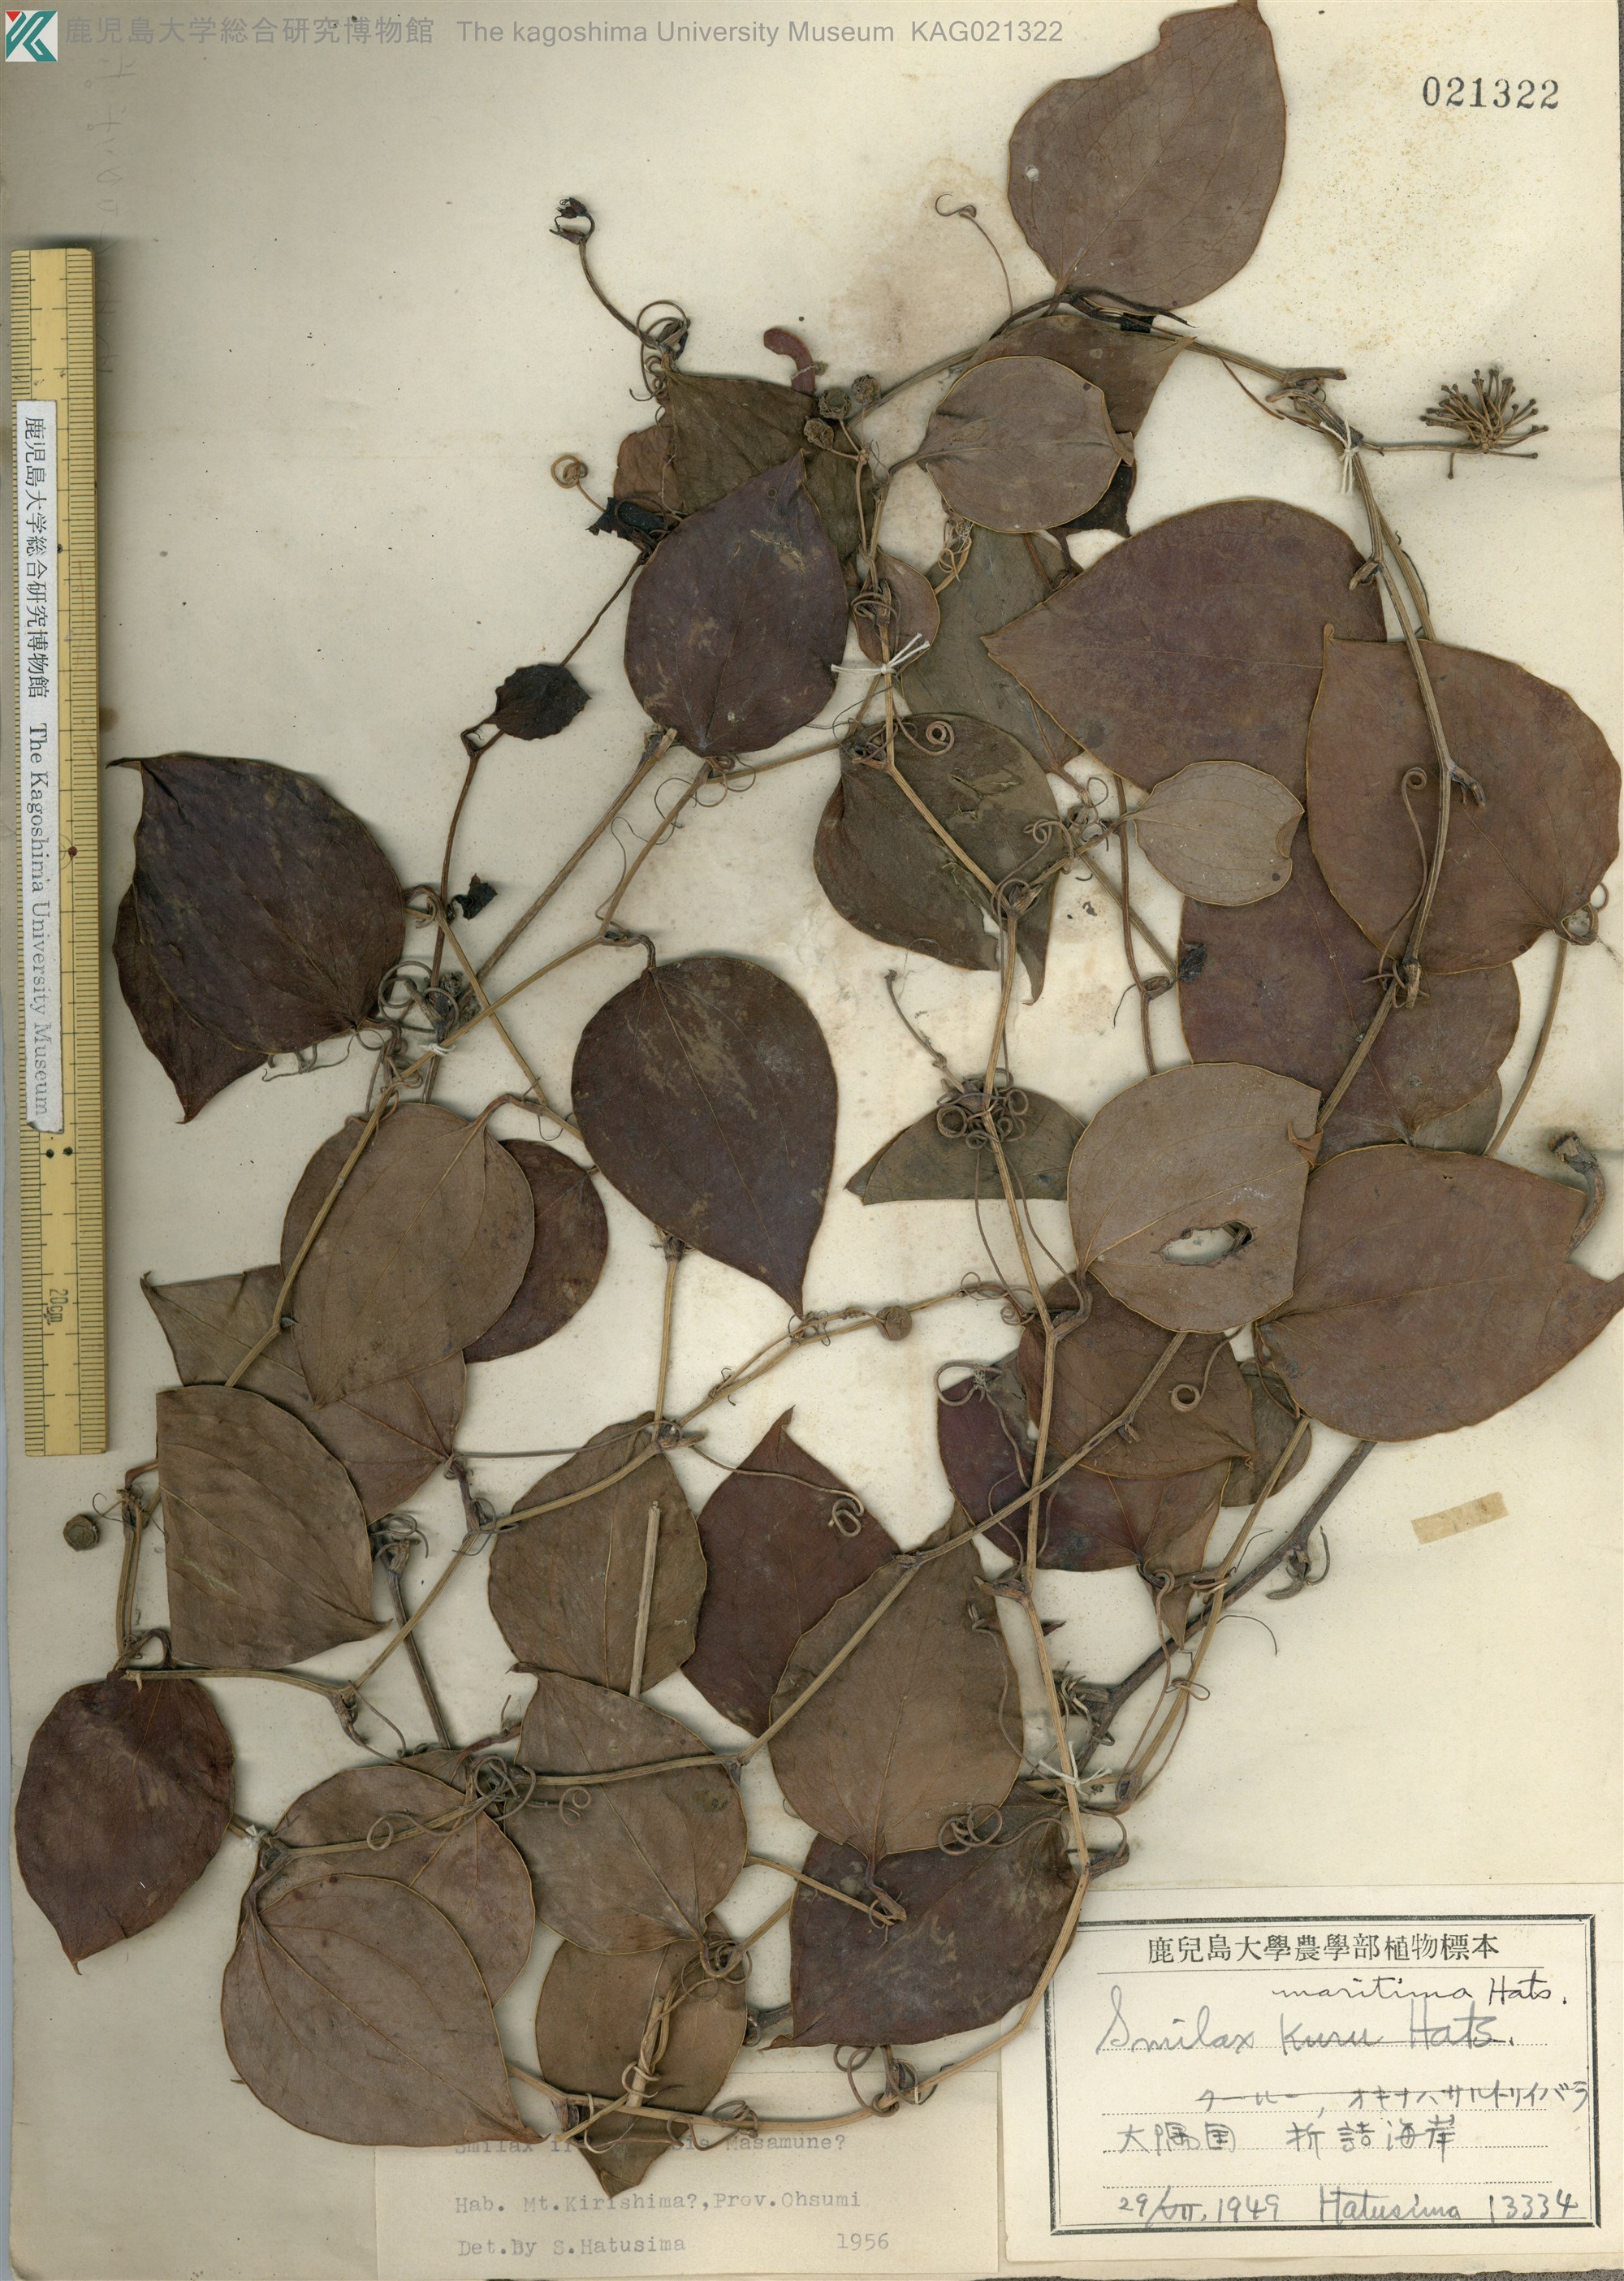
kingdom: Plantae
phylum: Tracheophyta
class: Liliopsida
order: Liliales
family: Smilacaceae
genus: Smilax
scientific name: Smilax sebeana
